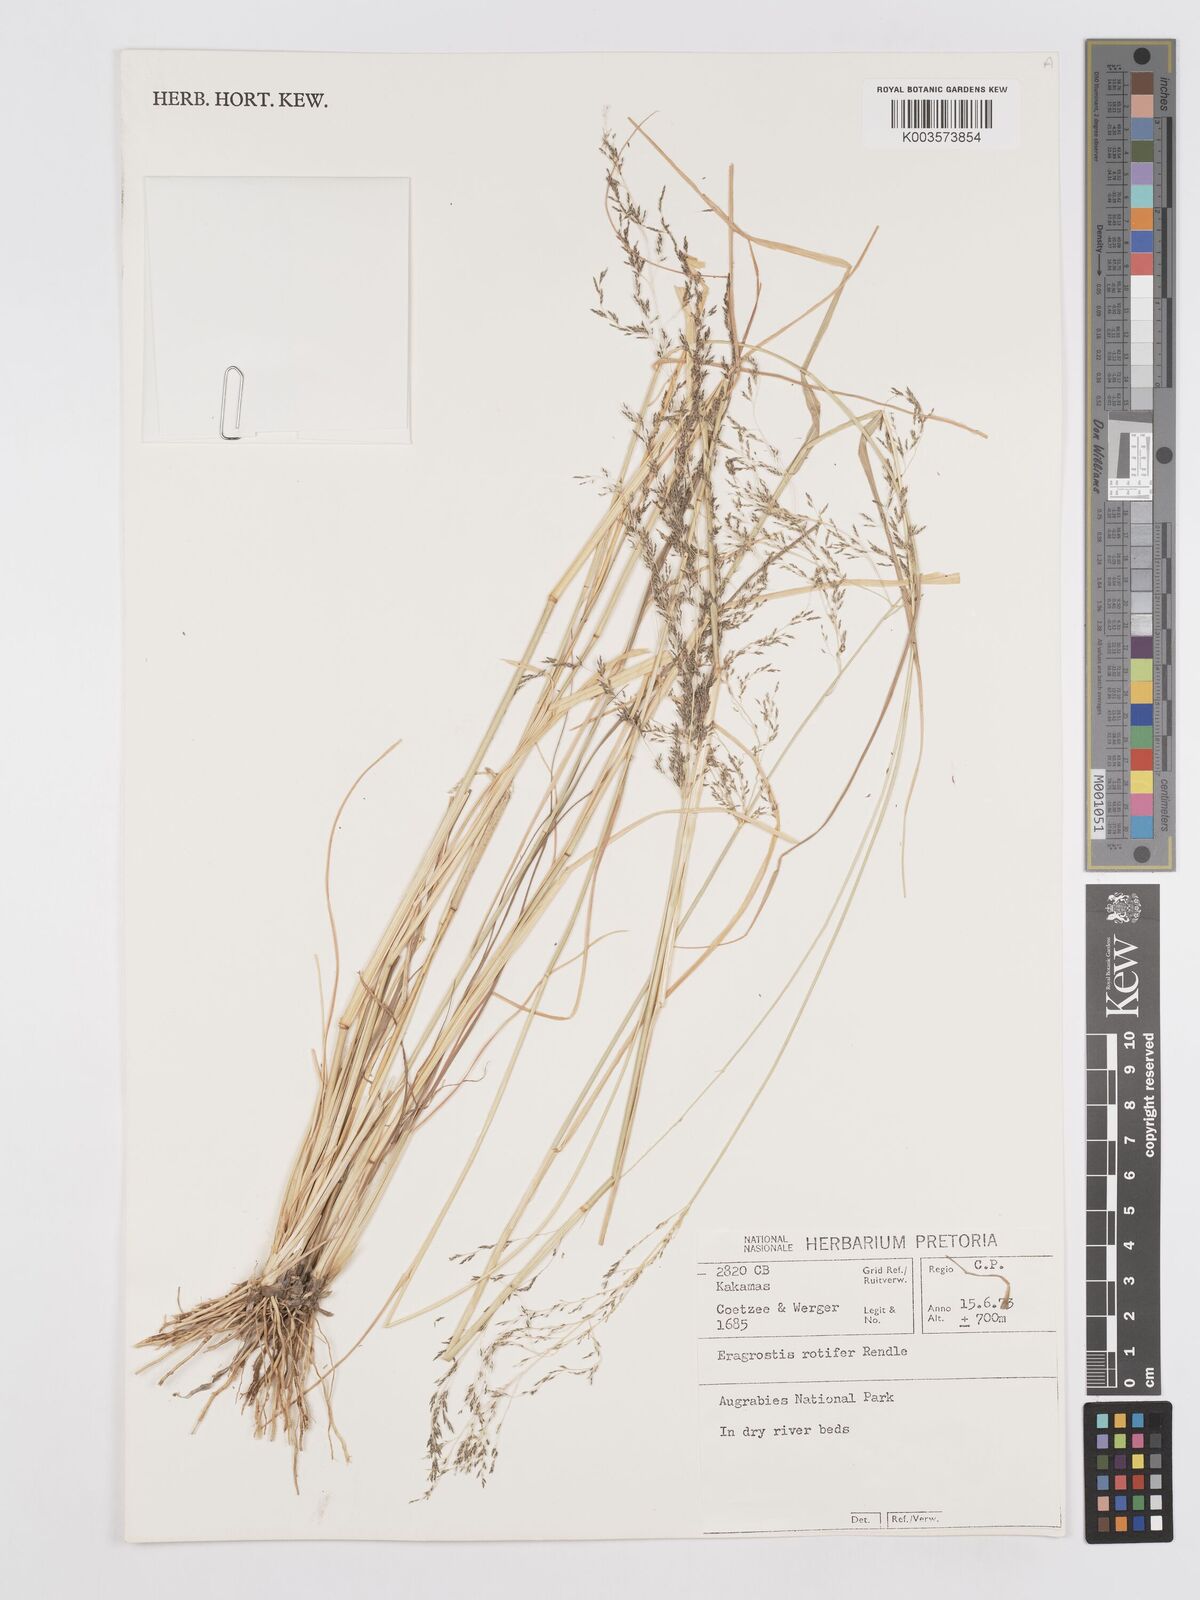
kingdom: Plantae
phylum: Tracheophyta
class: Liliopsida
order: Poales
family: Poaceae
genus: Eragrostis
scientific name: Eragrostis porosa
